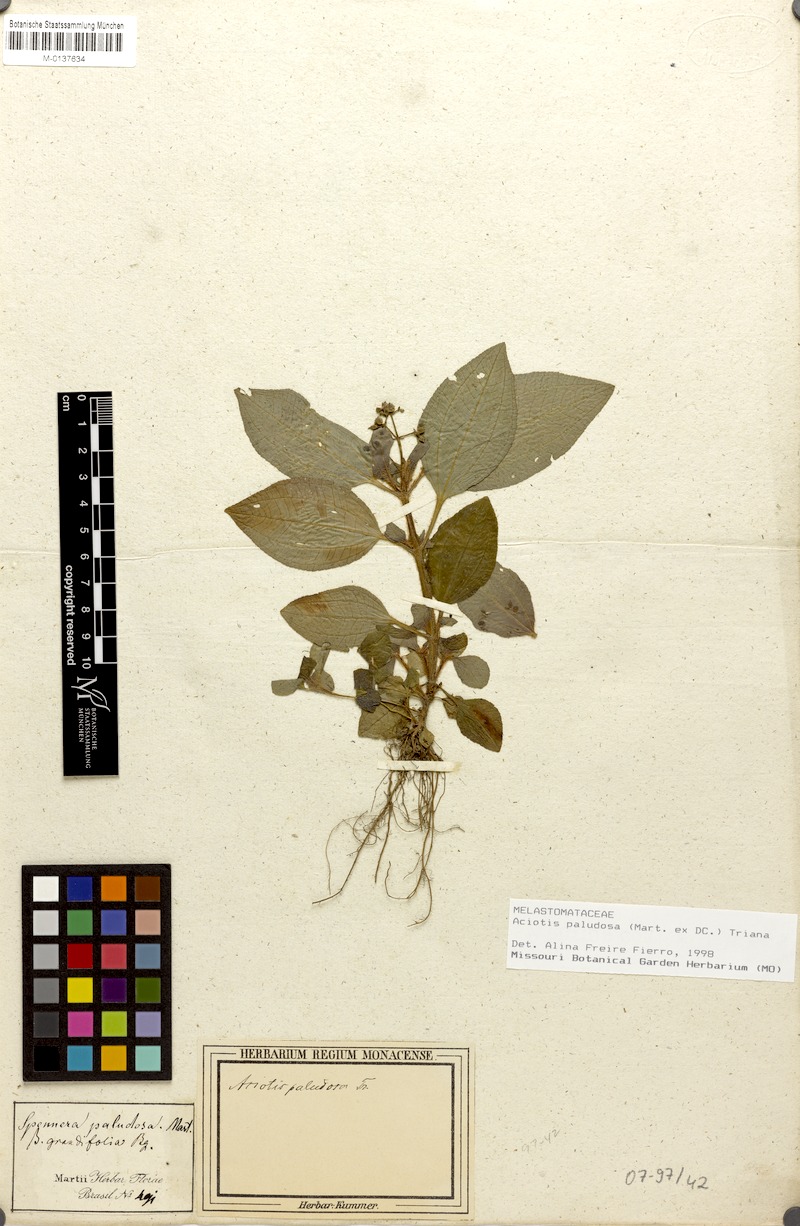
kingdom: Plantae
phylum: Tracheophyta
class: Magnoliopsida
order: Myrtales
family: Melastomataceae
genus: Aciotis
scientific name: Aciotis paludosa
